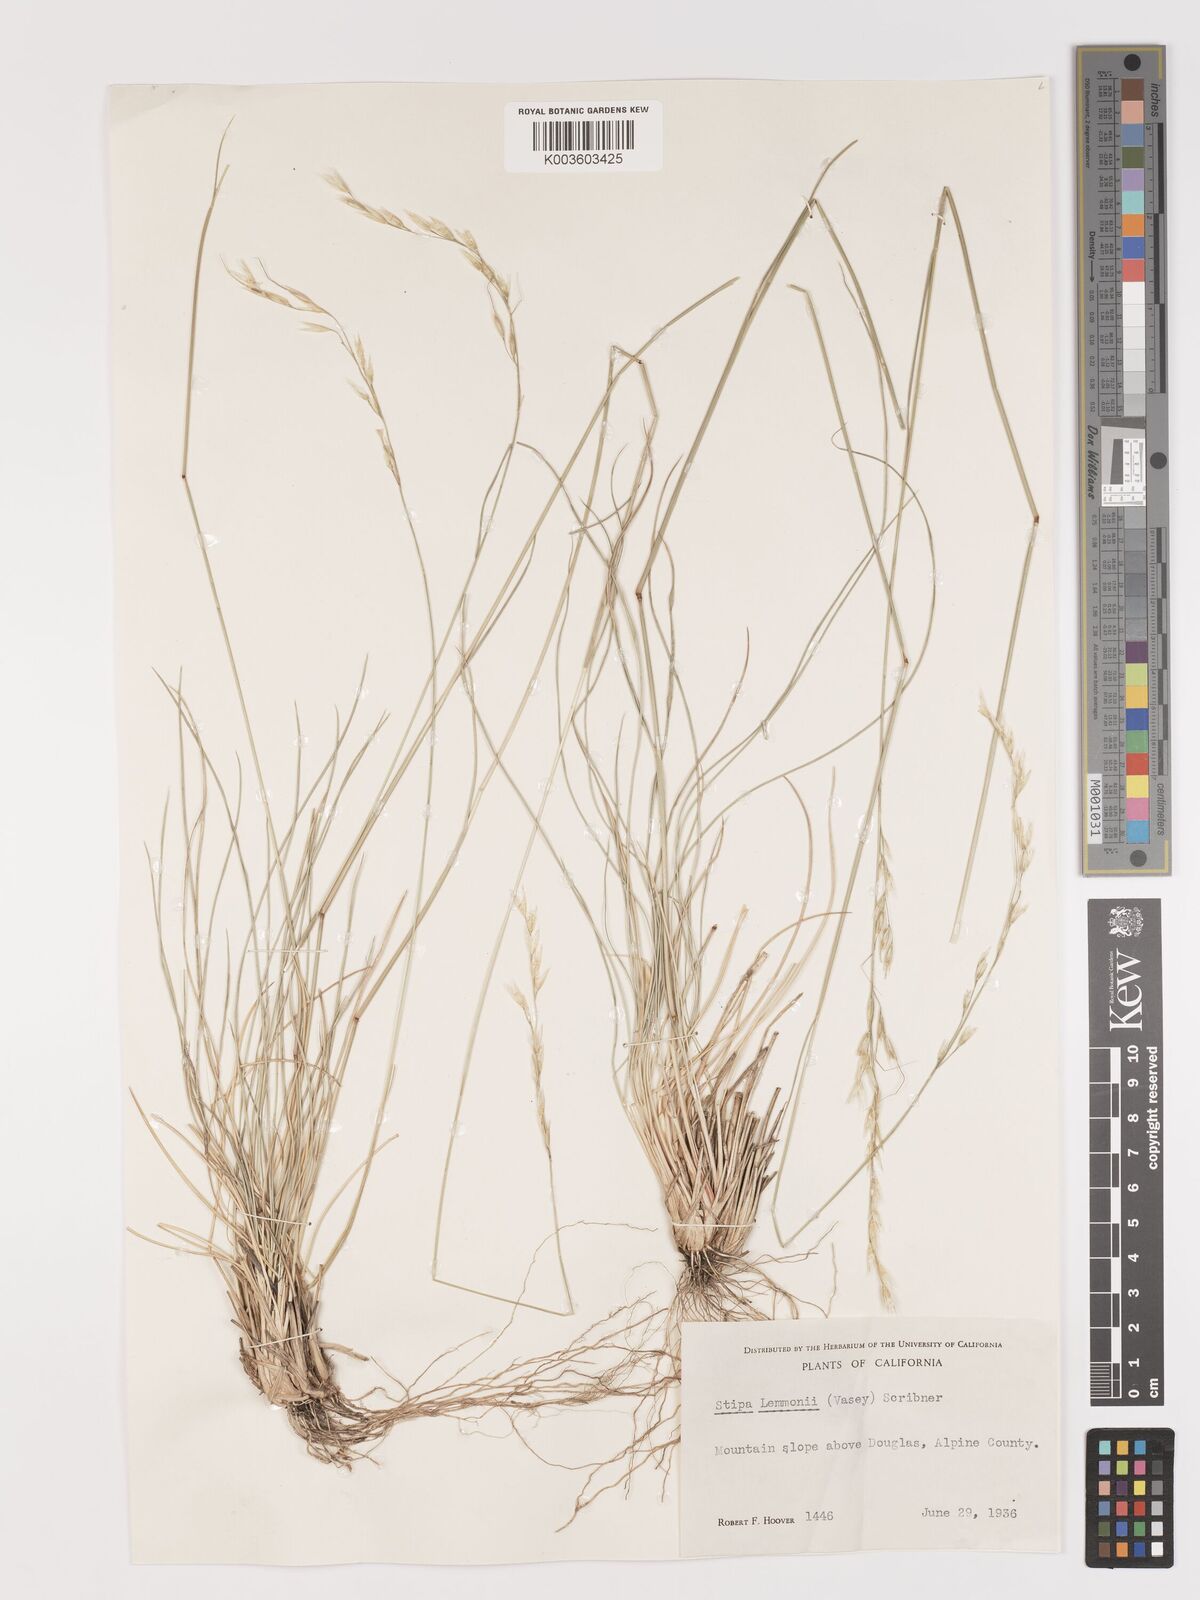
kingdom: Plantae
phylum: Tracheophyta
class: Liliopsida
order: Poales
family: Poaceae
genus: Eriocoma
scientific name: Eriocoma lemmonii
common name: Lemmon's needlegrass
